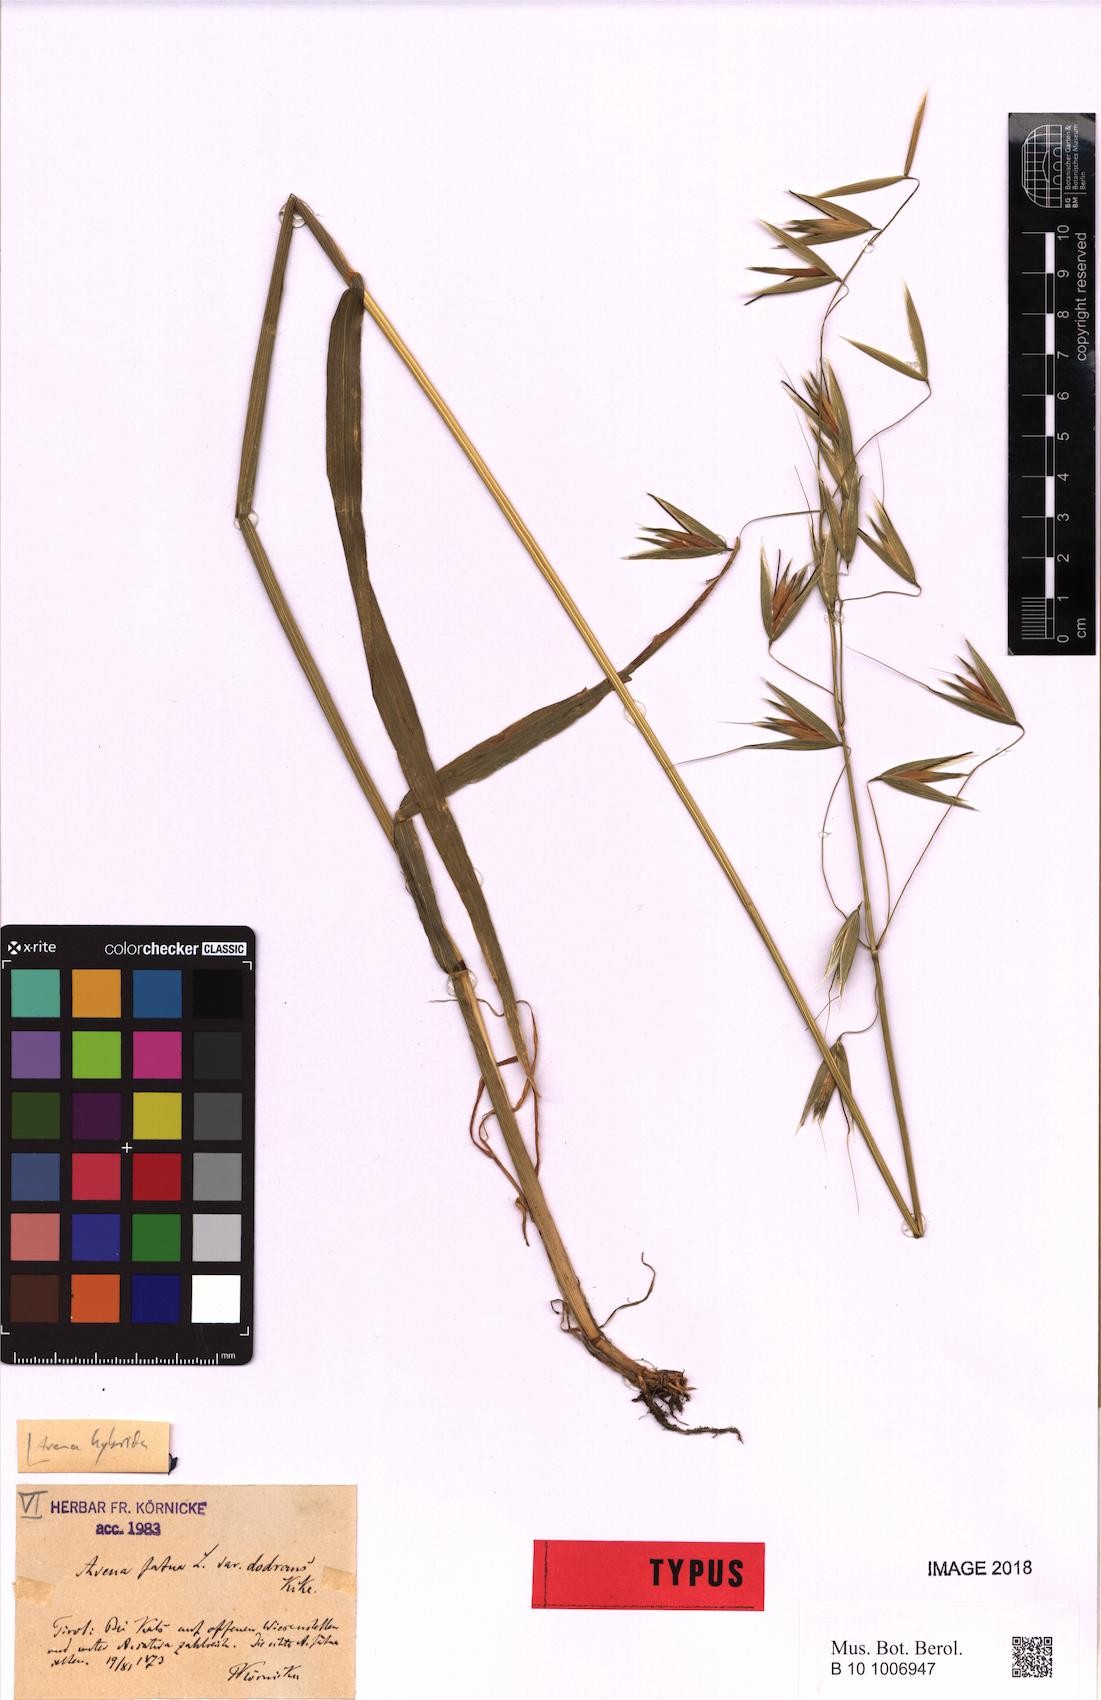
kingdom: Plantae
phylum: Tracheophyta
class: Liliopsida
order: Poales
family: Poaceae
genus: Avena
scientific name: Avena hybrida
